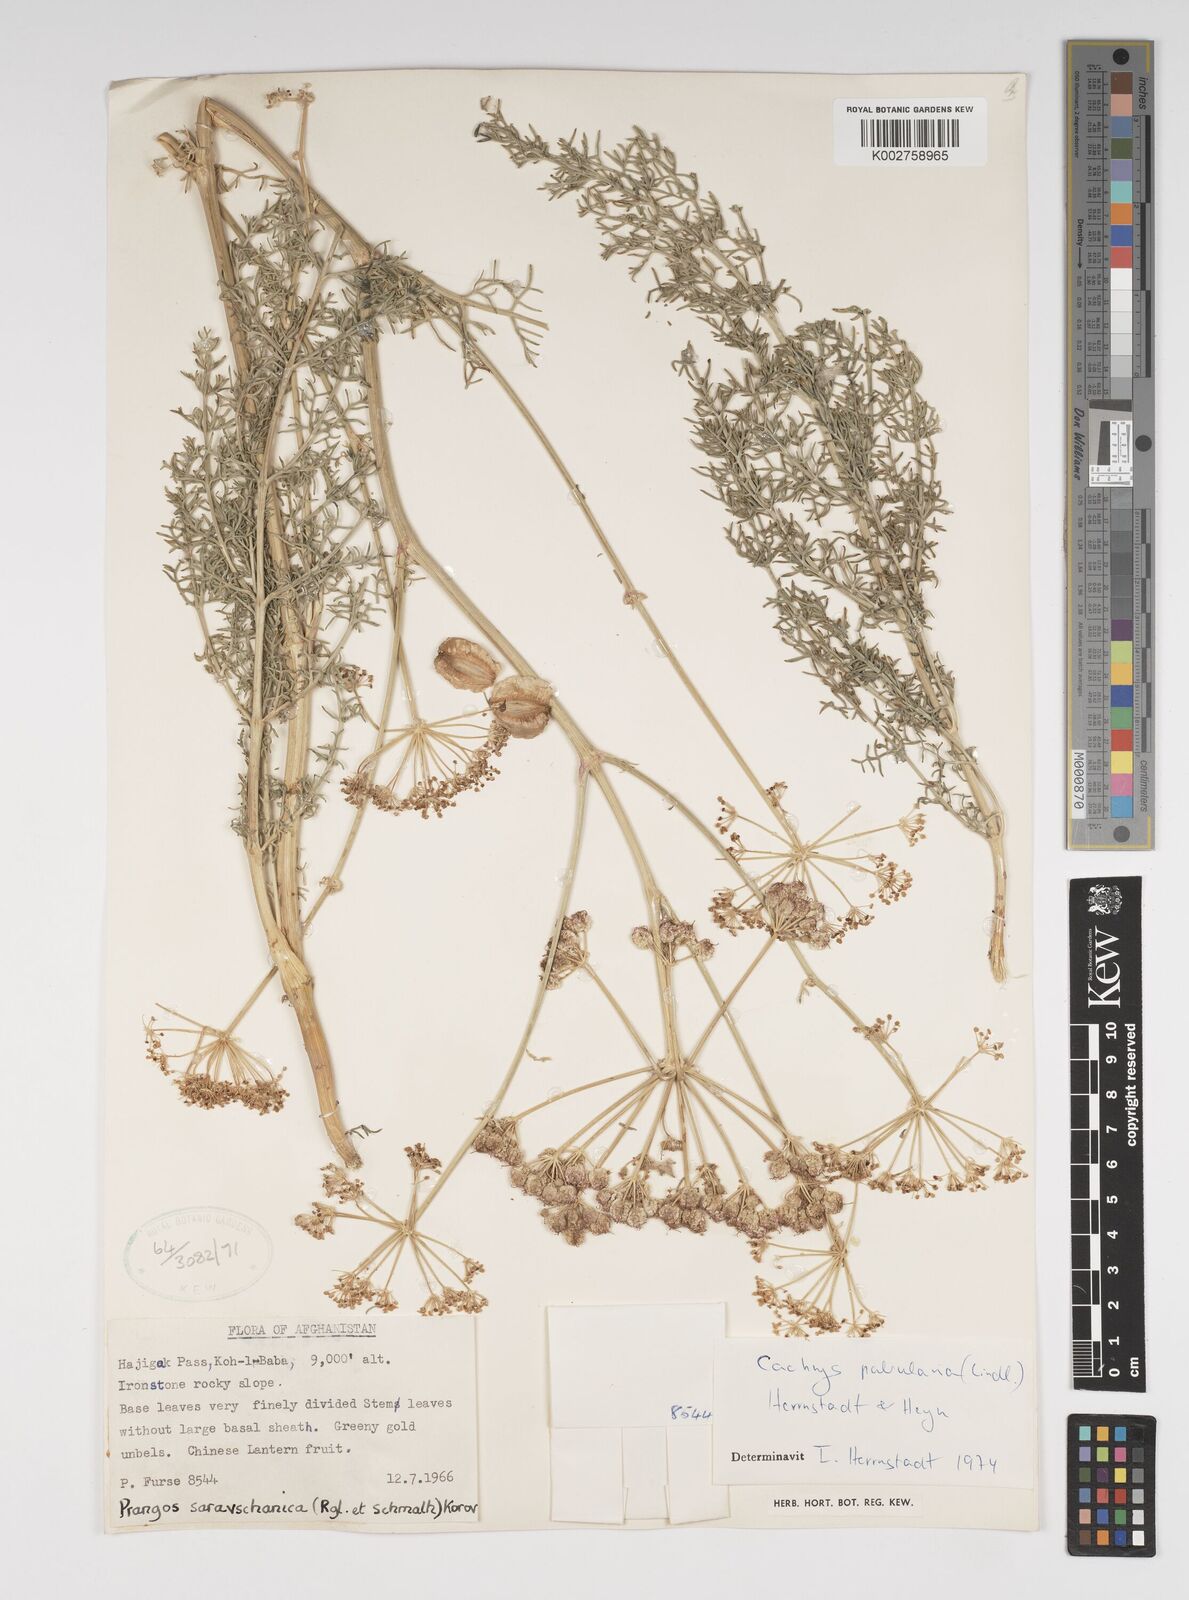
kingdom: Plantae
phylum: Tracheophyta
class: Magnoliopsida
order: Apiales
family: Apiaceae
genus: Prangos
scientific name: Prangos pabularia
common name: Yugan
